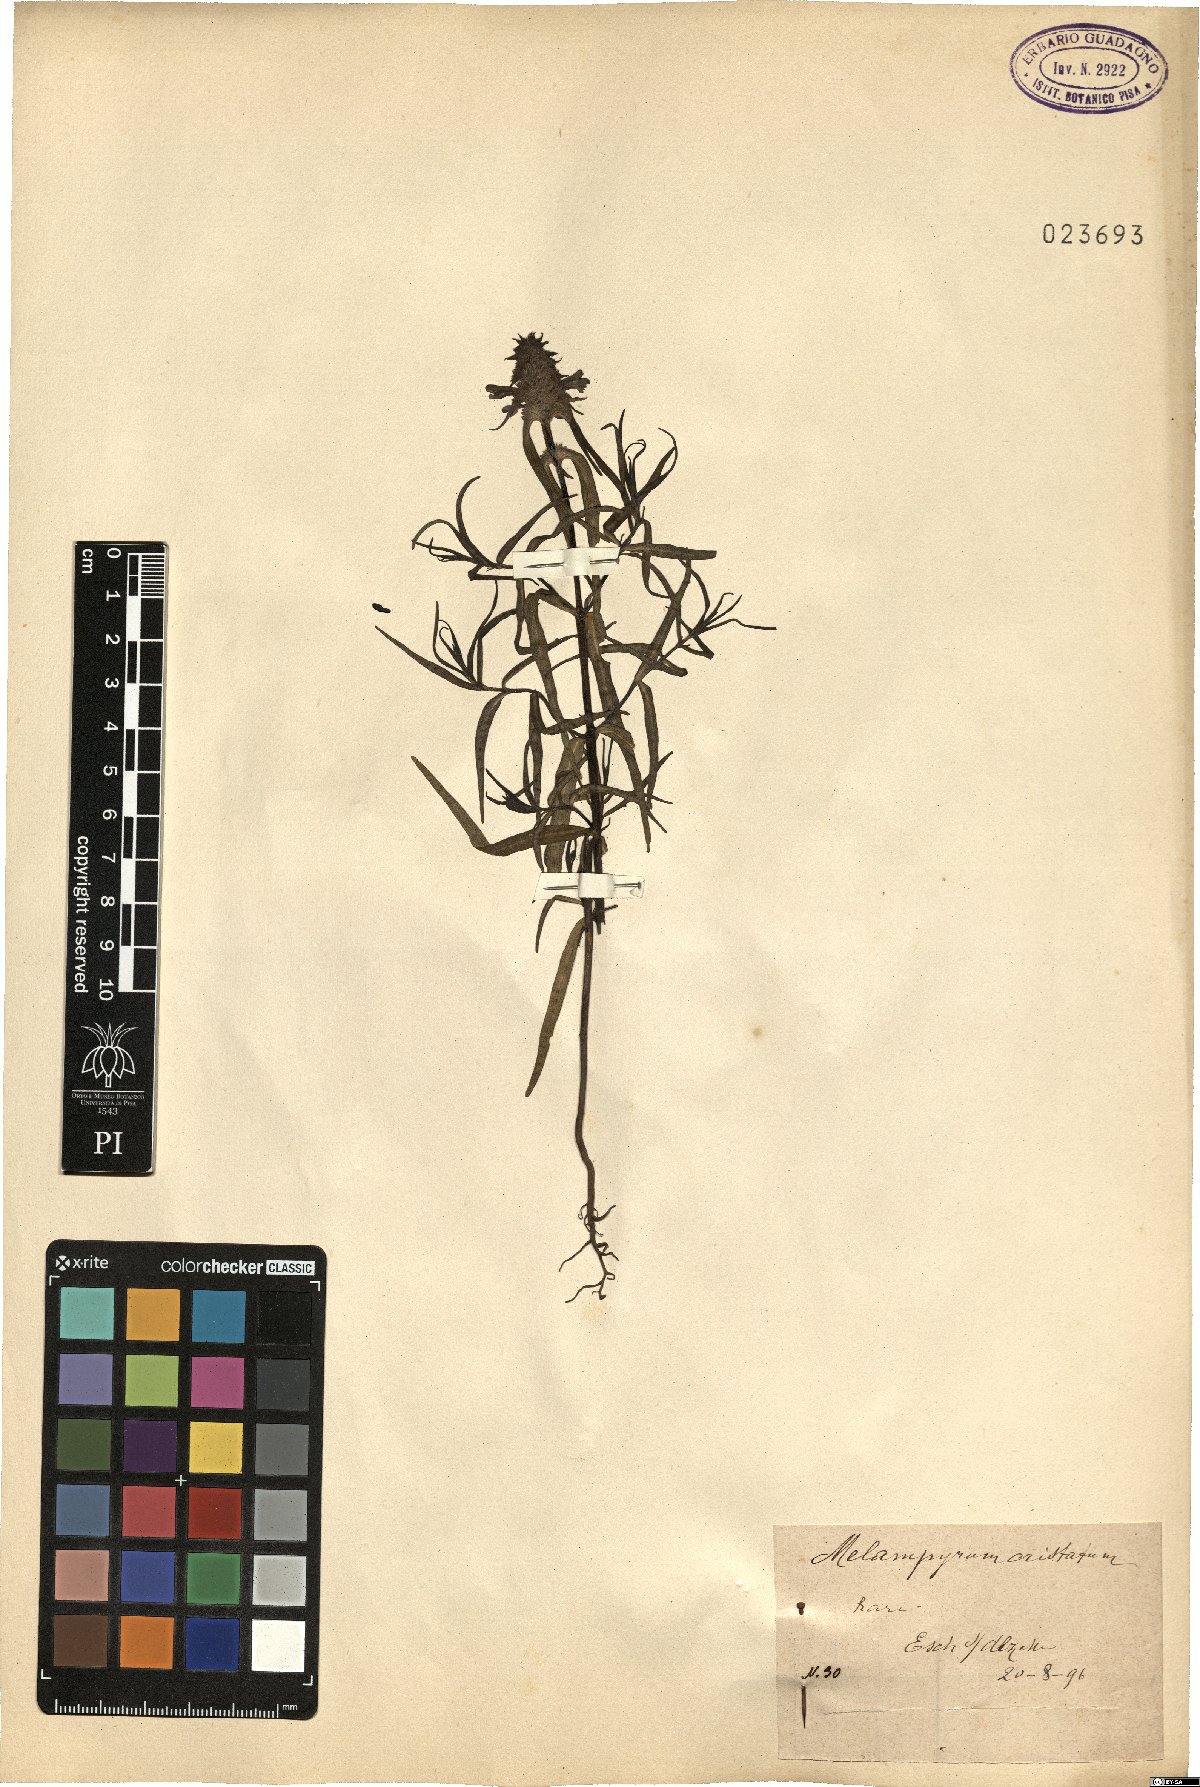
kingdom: Plantae
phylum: Tracheophyta
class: Magnoliopsida
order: Lamiales
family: Orobanchaceae
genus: Melampyrum
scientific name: Melampyrum cristatum
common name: Crested cow-wheat
